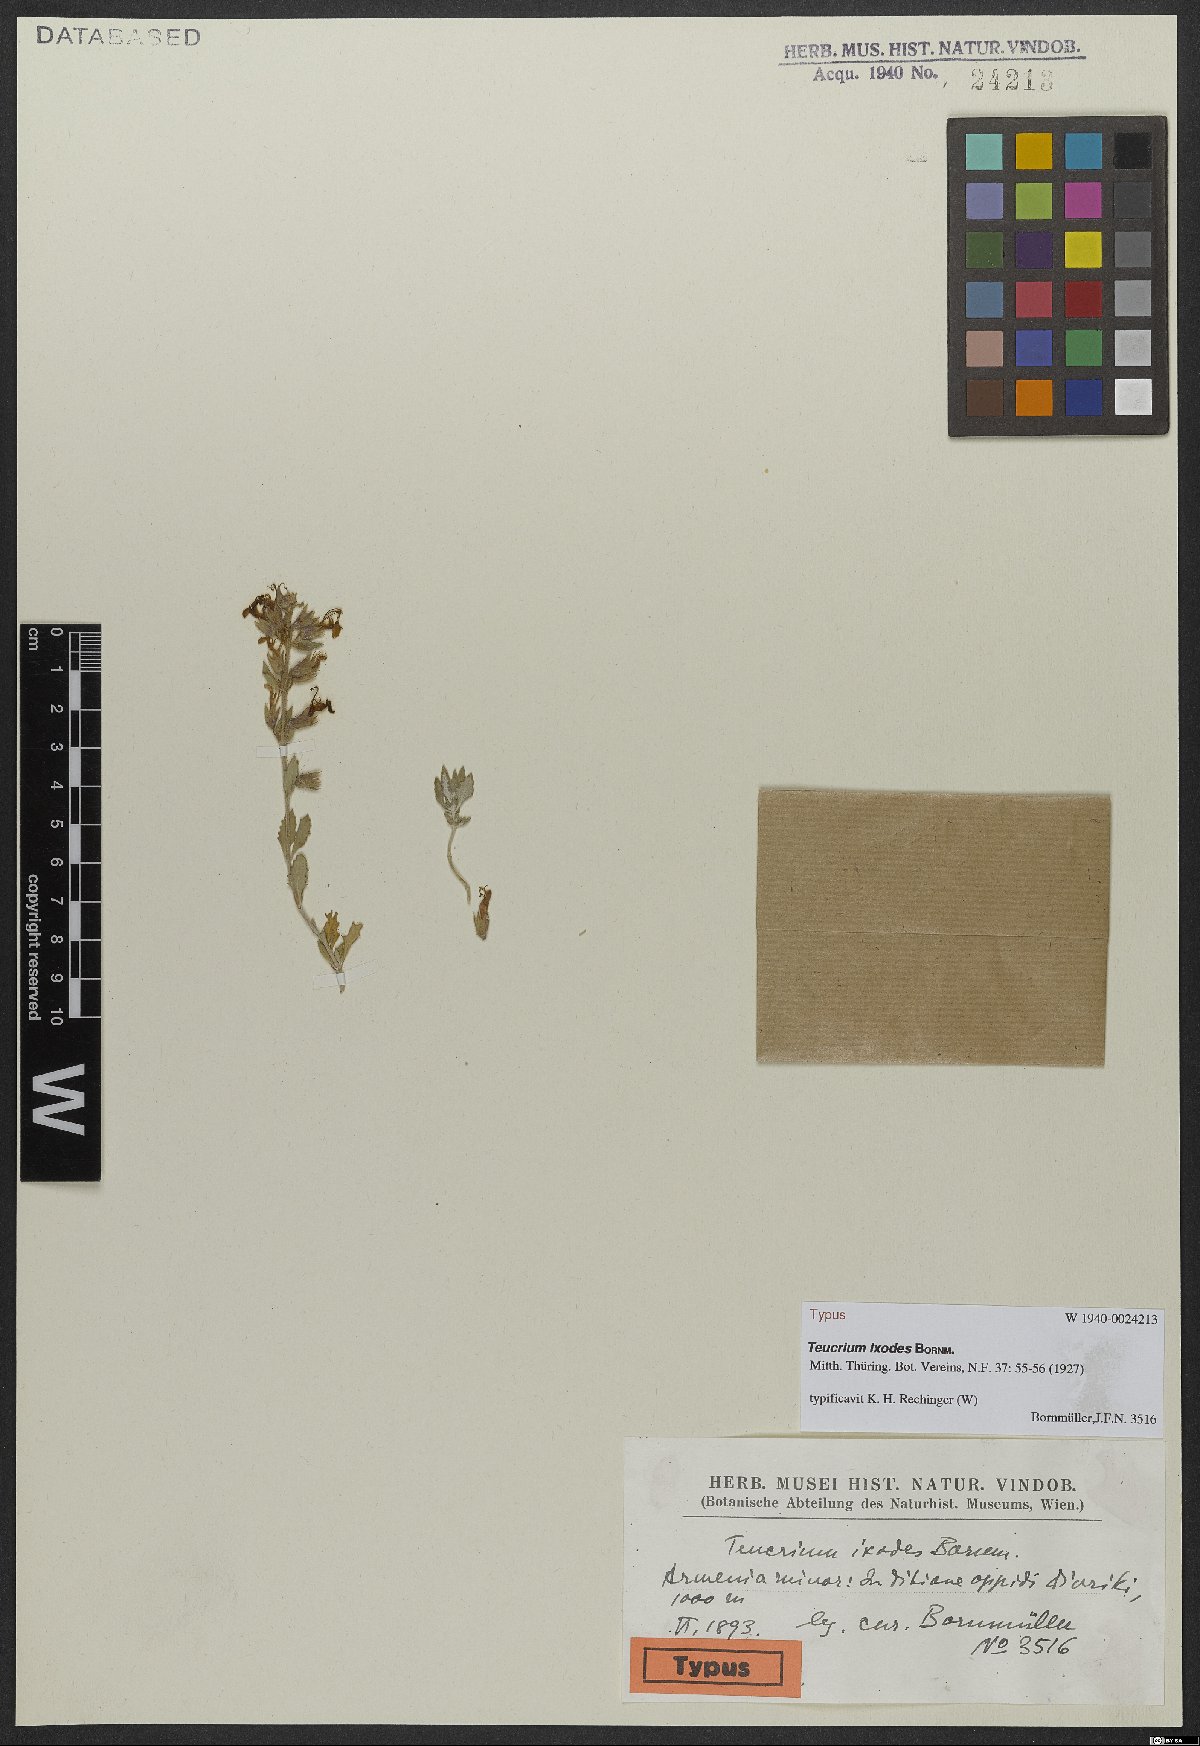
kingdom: Plantae
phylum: Tracheophyta
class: Magnoliopsida
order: Lamiales
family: Lamiaceae
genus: Teucrium
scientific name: Teucrium ixodes
